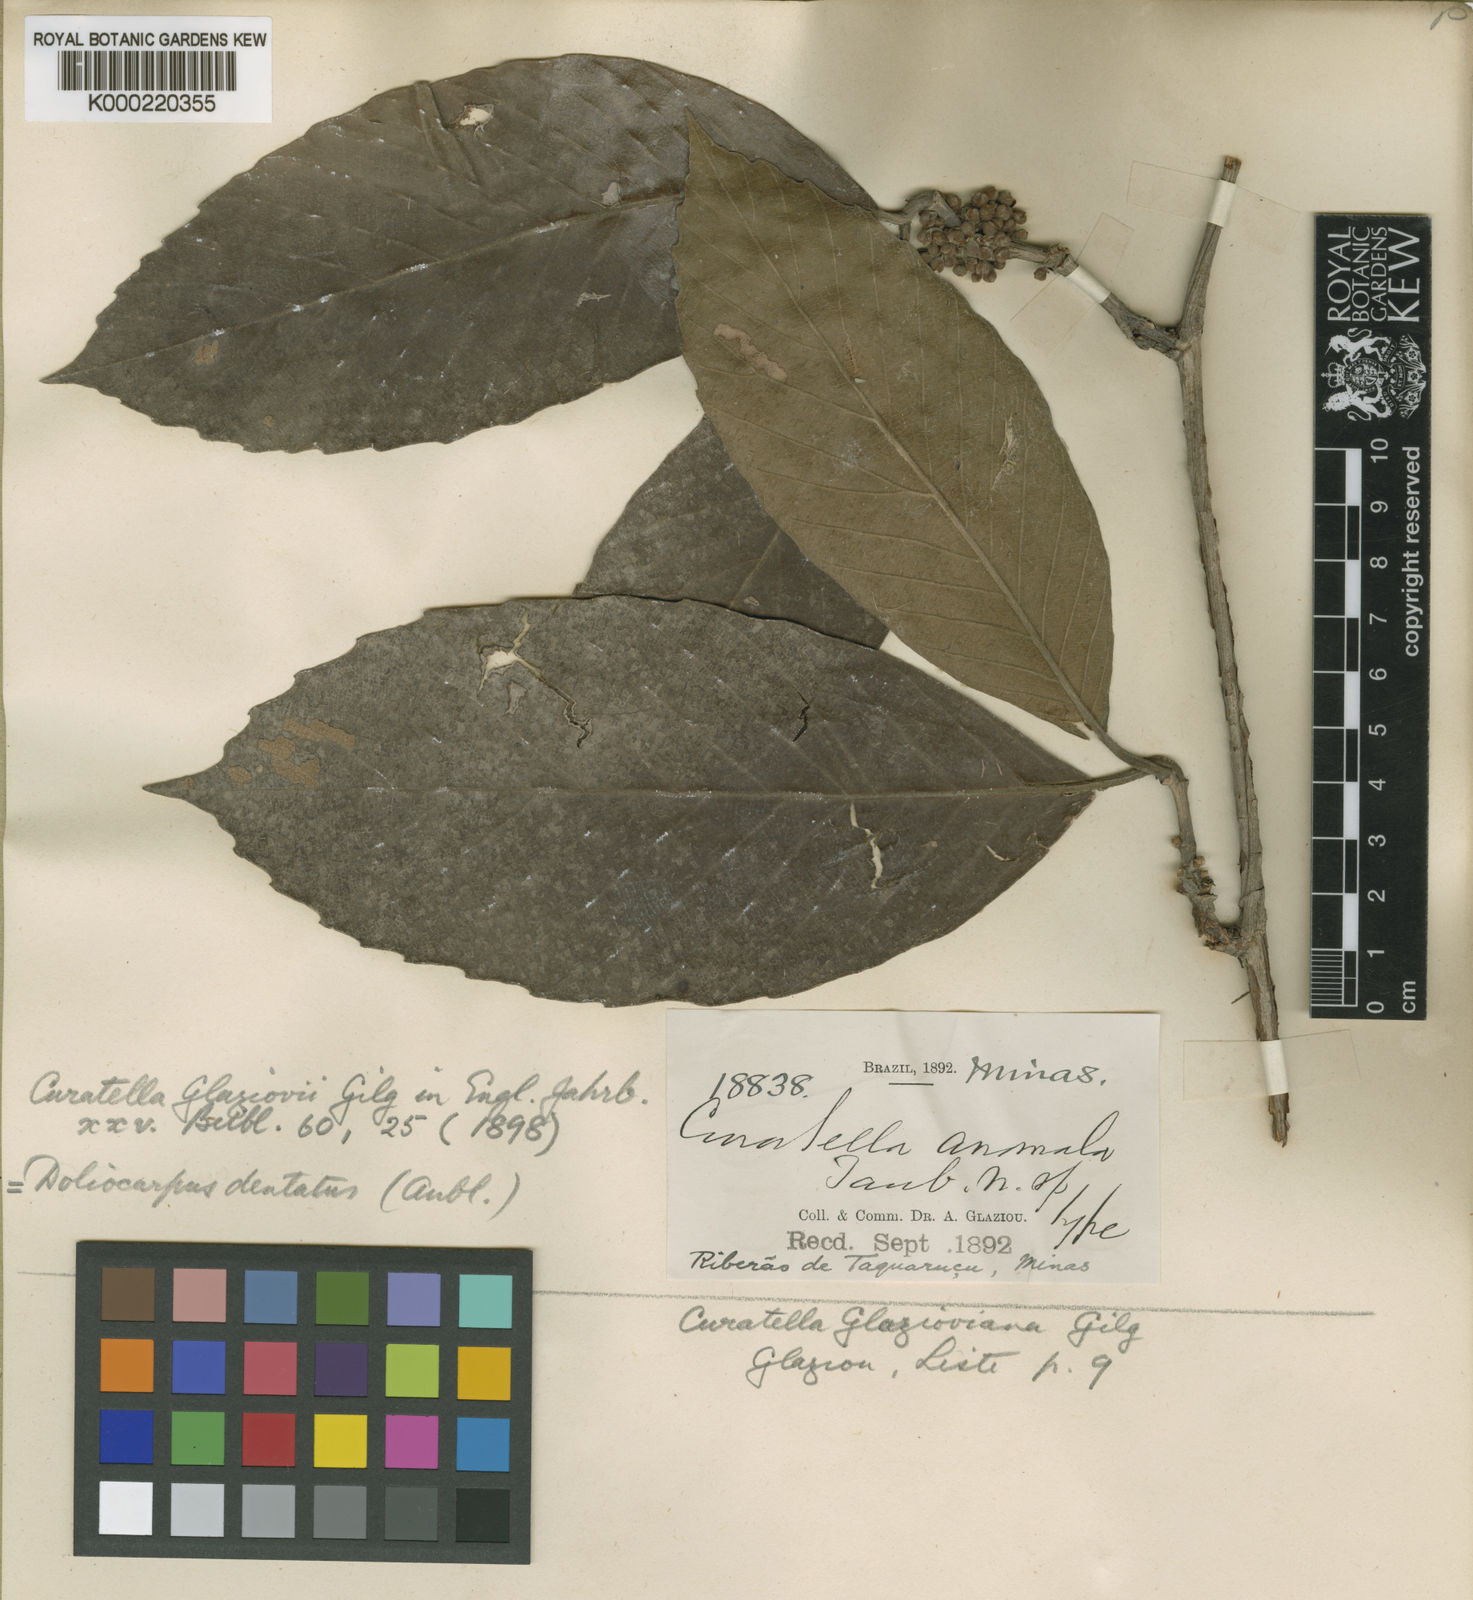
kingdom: Plantae
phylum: Tracheophyta
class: Magnoliopsida
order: Dilleniales
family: Dilleniaceae
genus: Doliocarpus
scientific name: Doliocarpus dentatus
